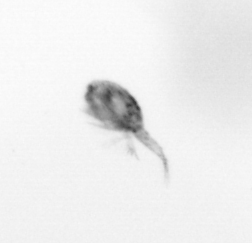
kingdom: Animalia
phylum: Arthropoda
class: Copepoda
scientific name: Copepoda
